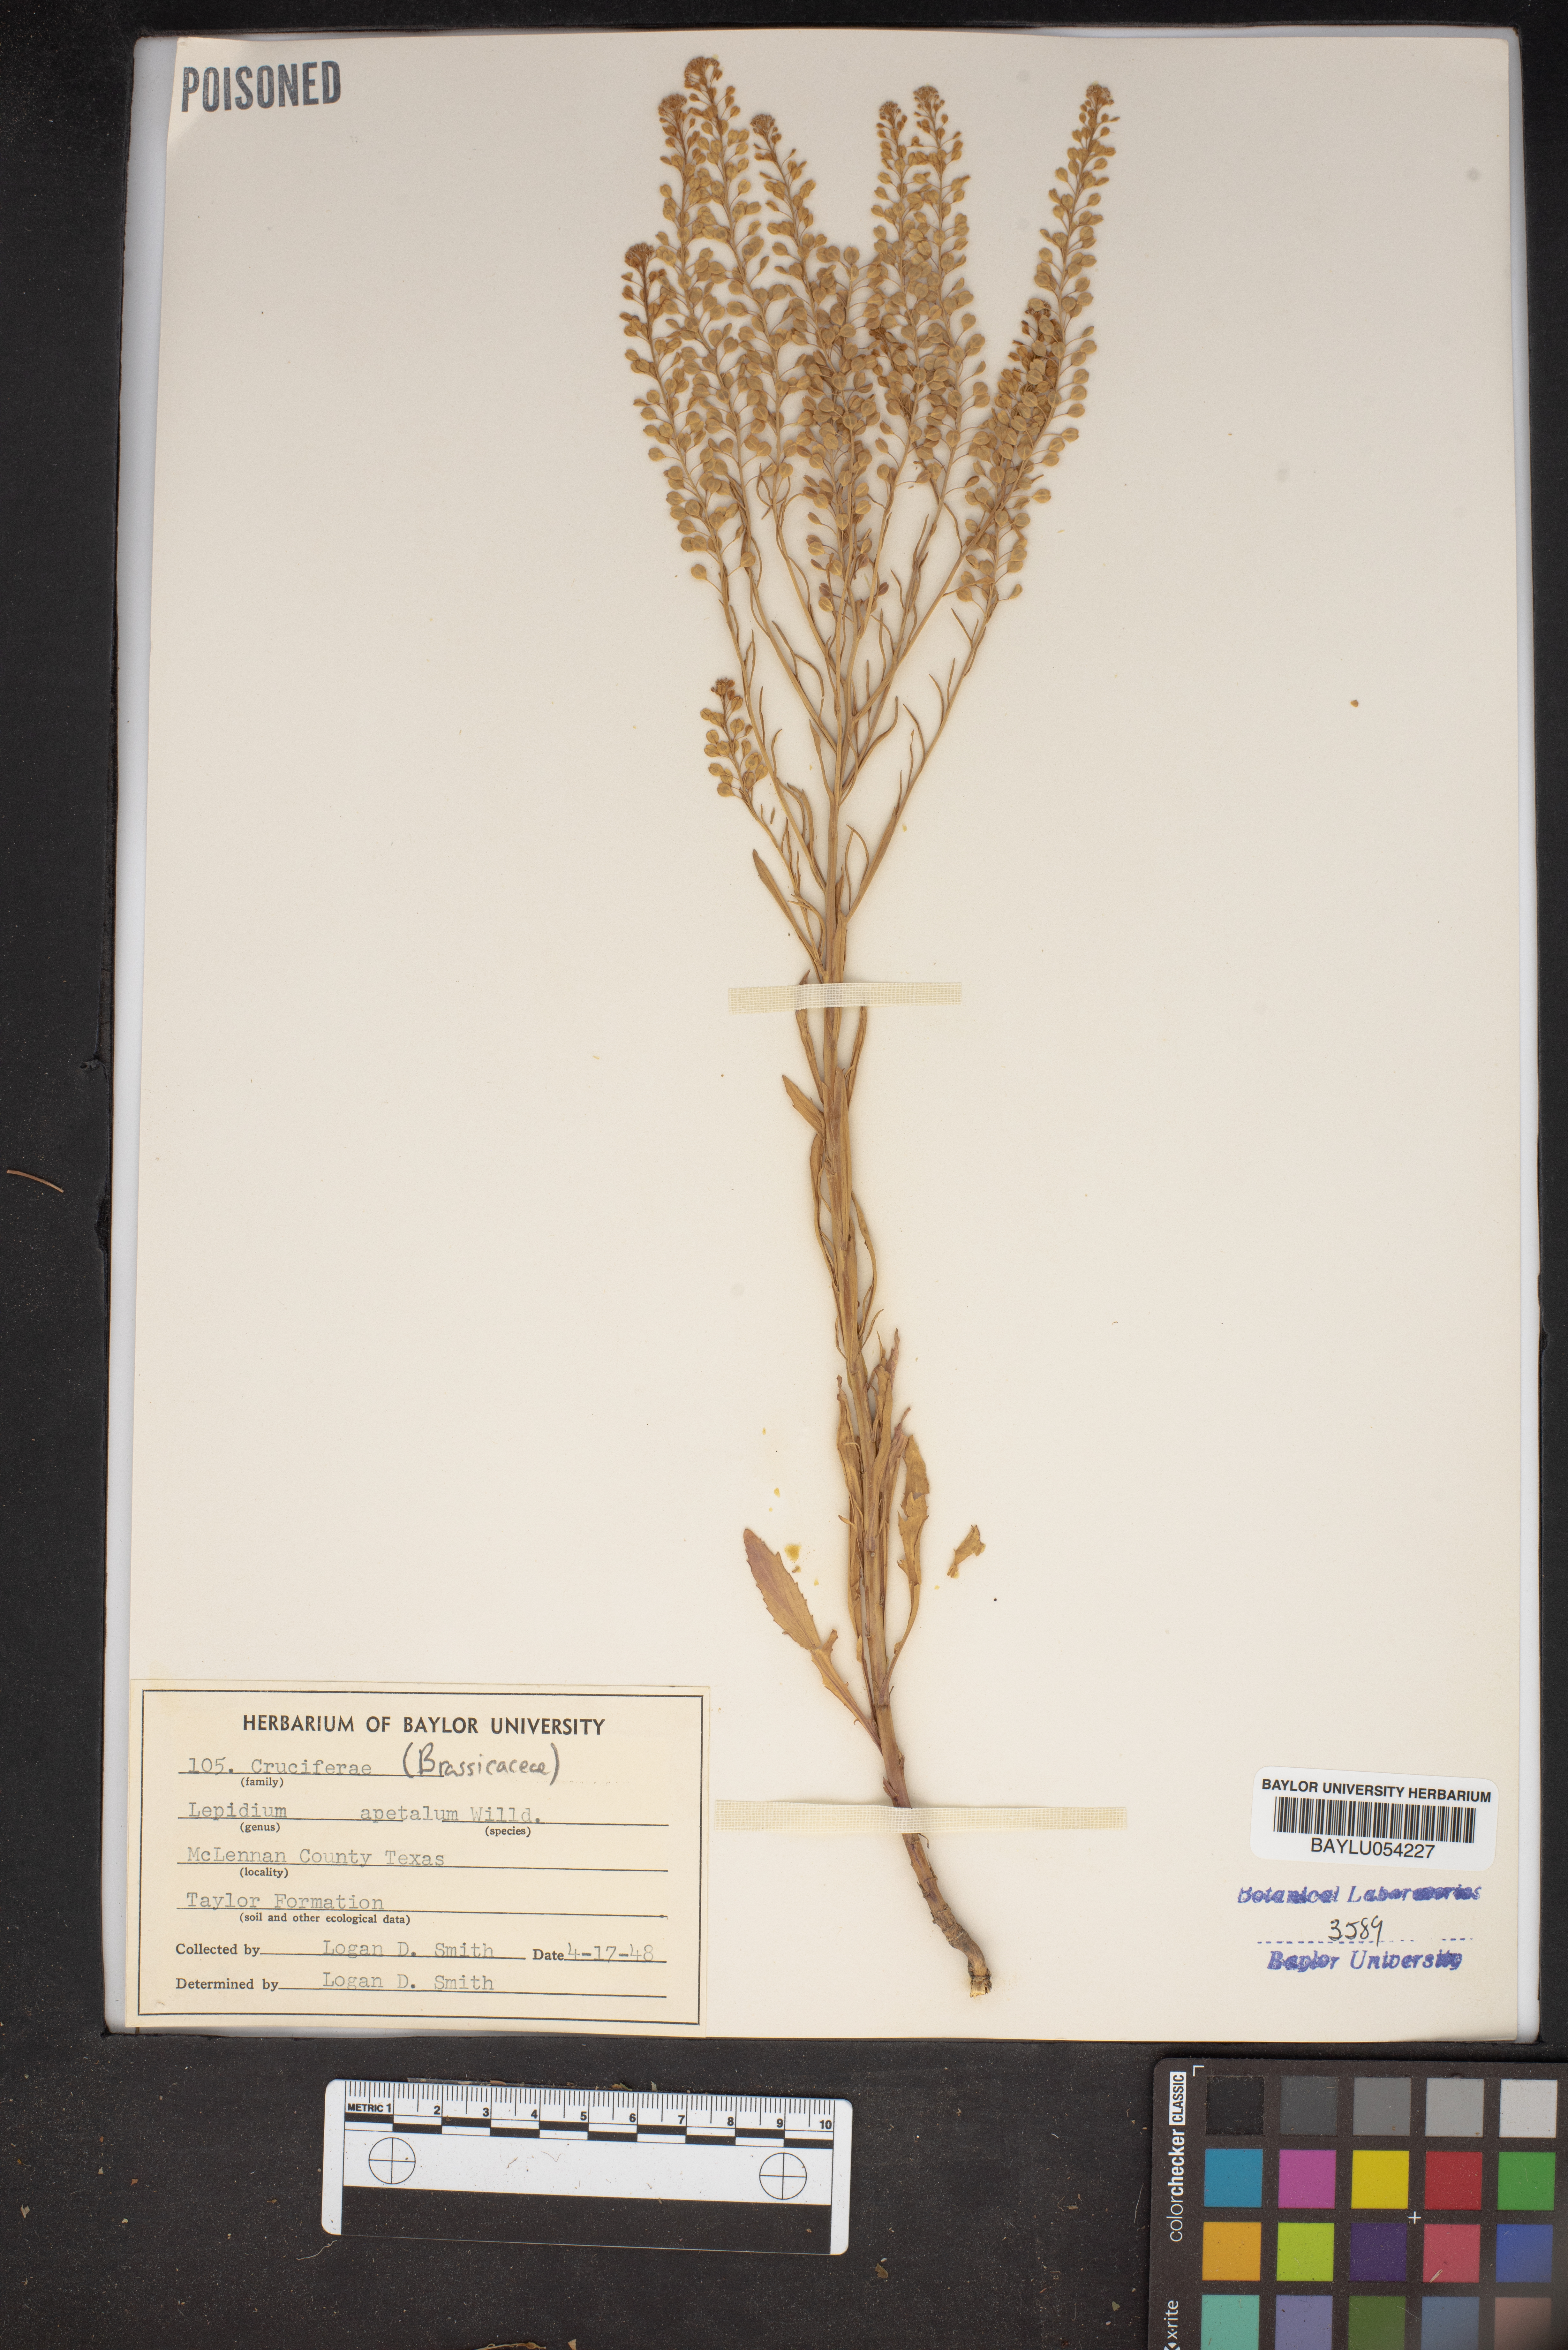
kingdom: Plantae
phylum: Tracheophyta
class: Magnoliopsida
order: Brassicales
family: Brassicaceae
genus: Lepidium
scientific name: Lepidium apetalum
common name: Pepperweed
